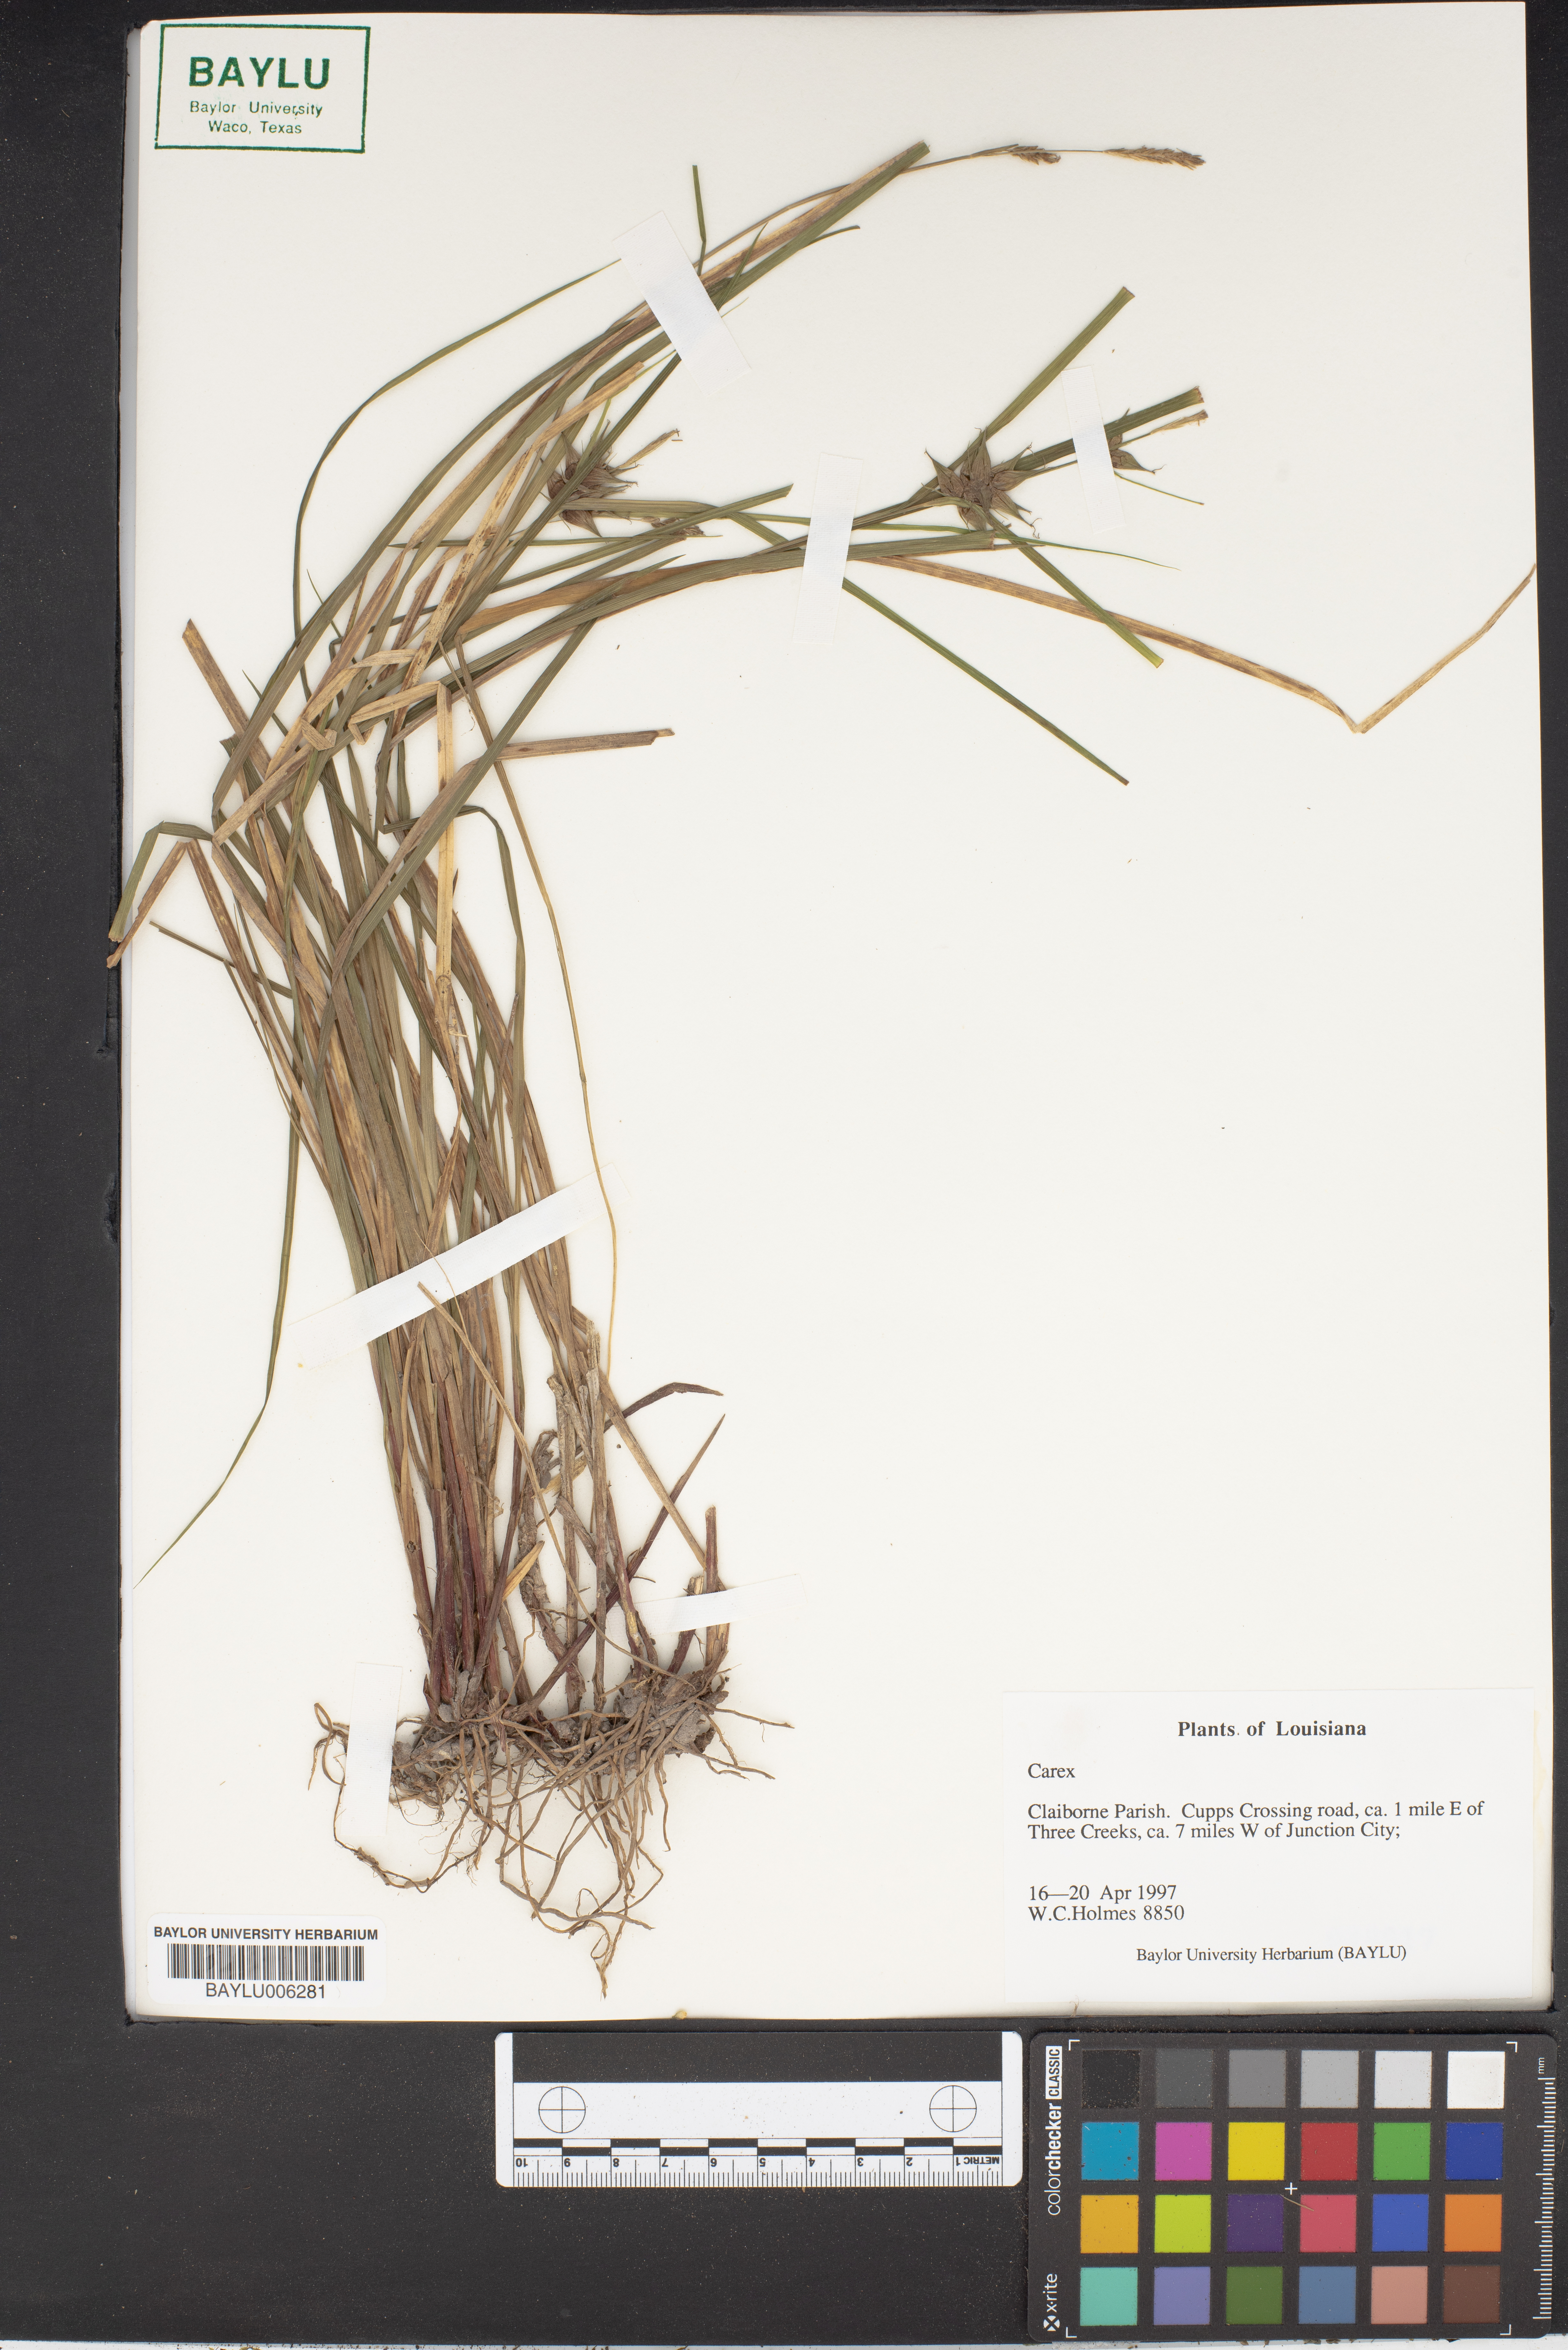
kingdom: Plantae
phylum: Tracheophyta
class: Liliopsida
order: Poales
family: Cyperaceae
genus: Carex
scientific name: Carex
